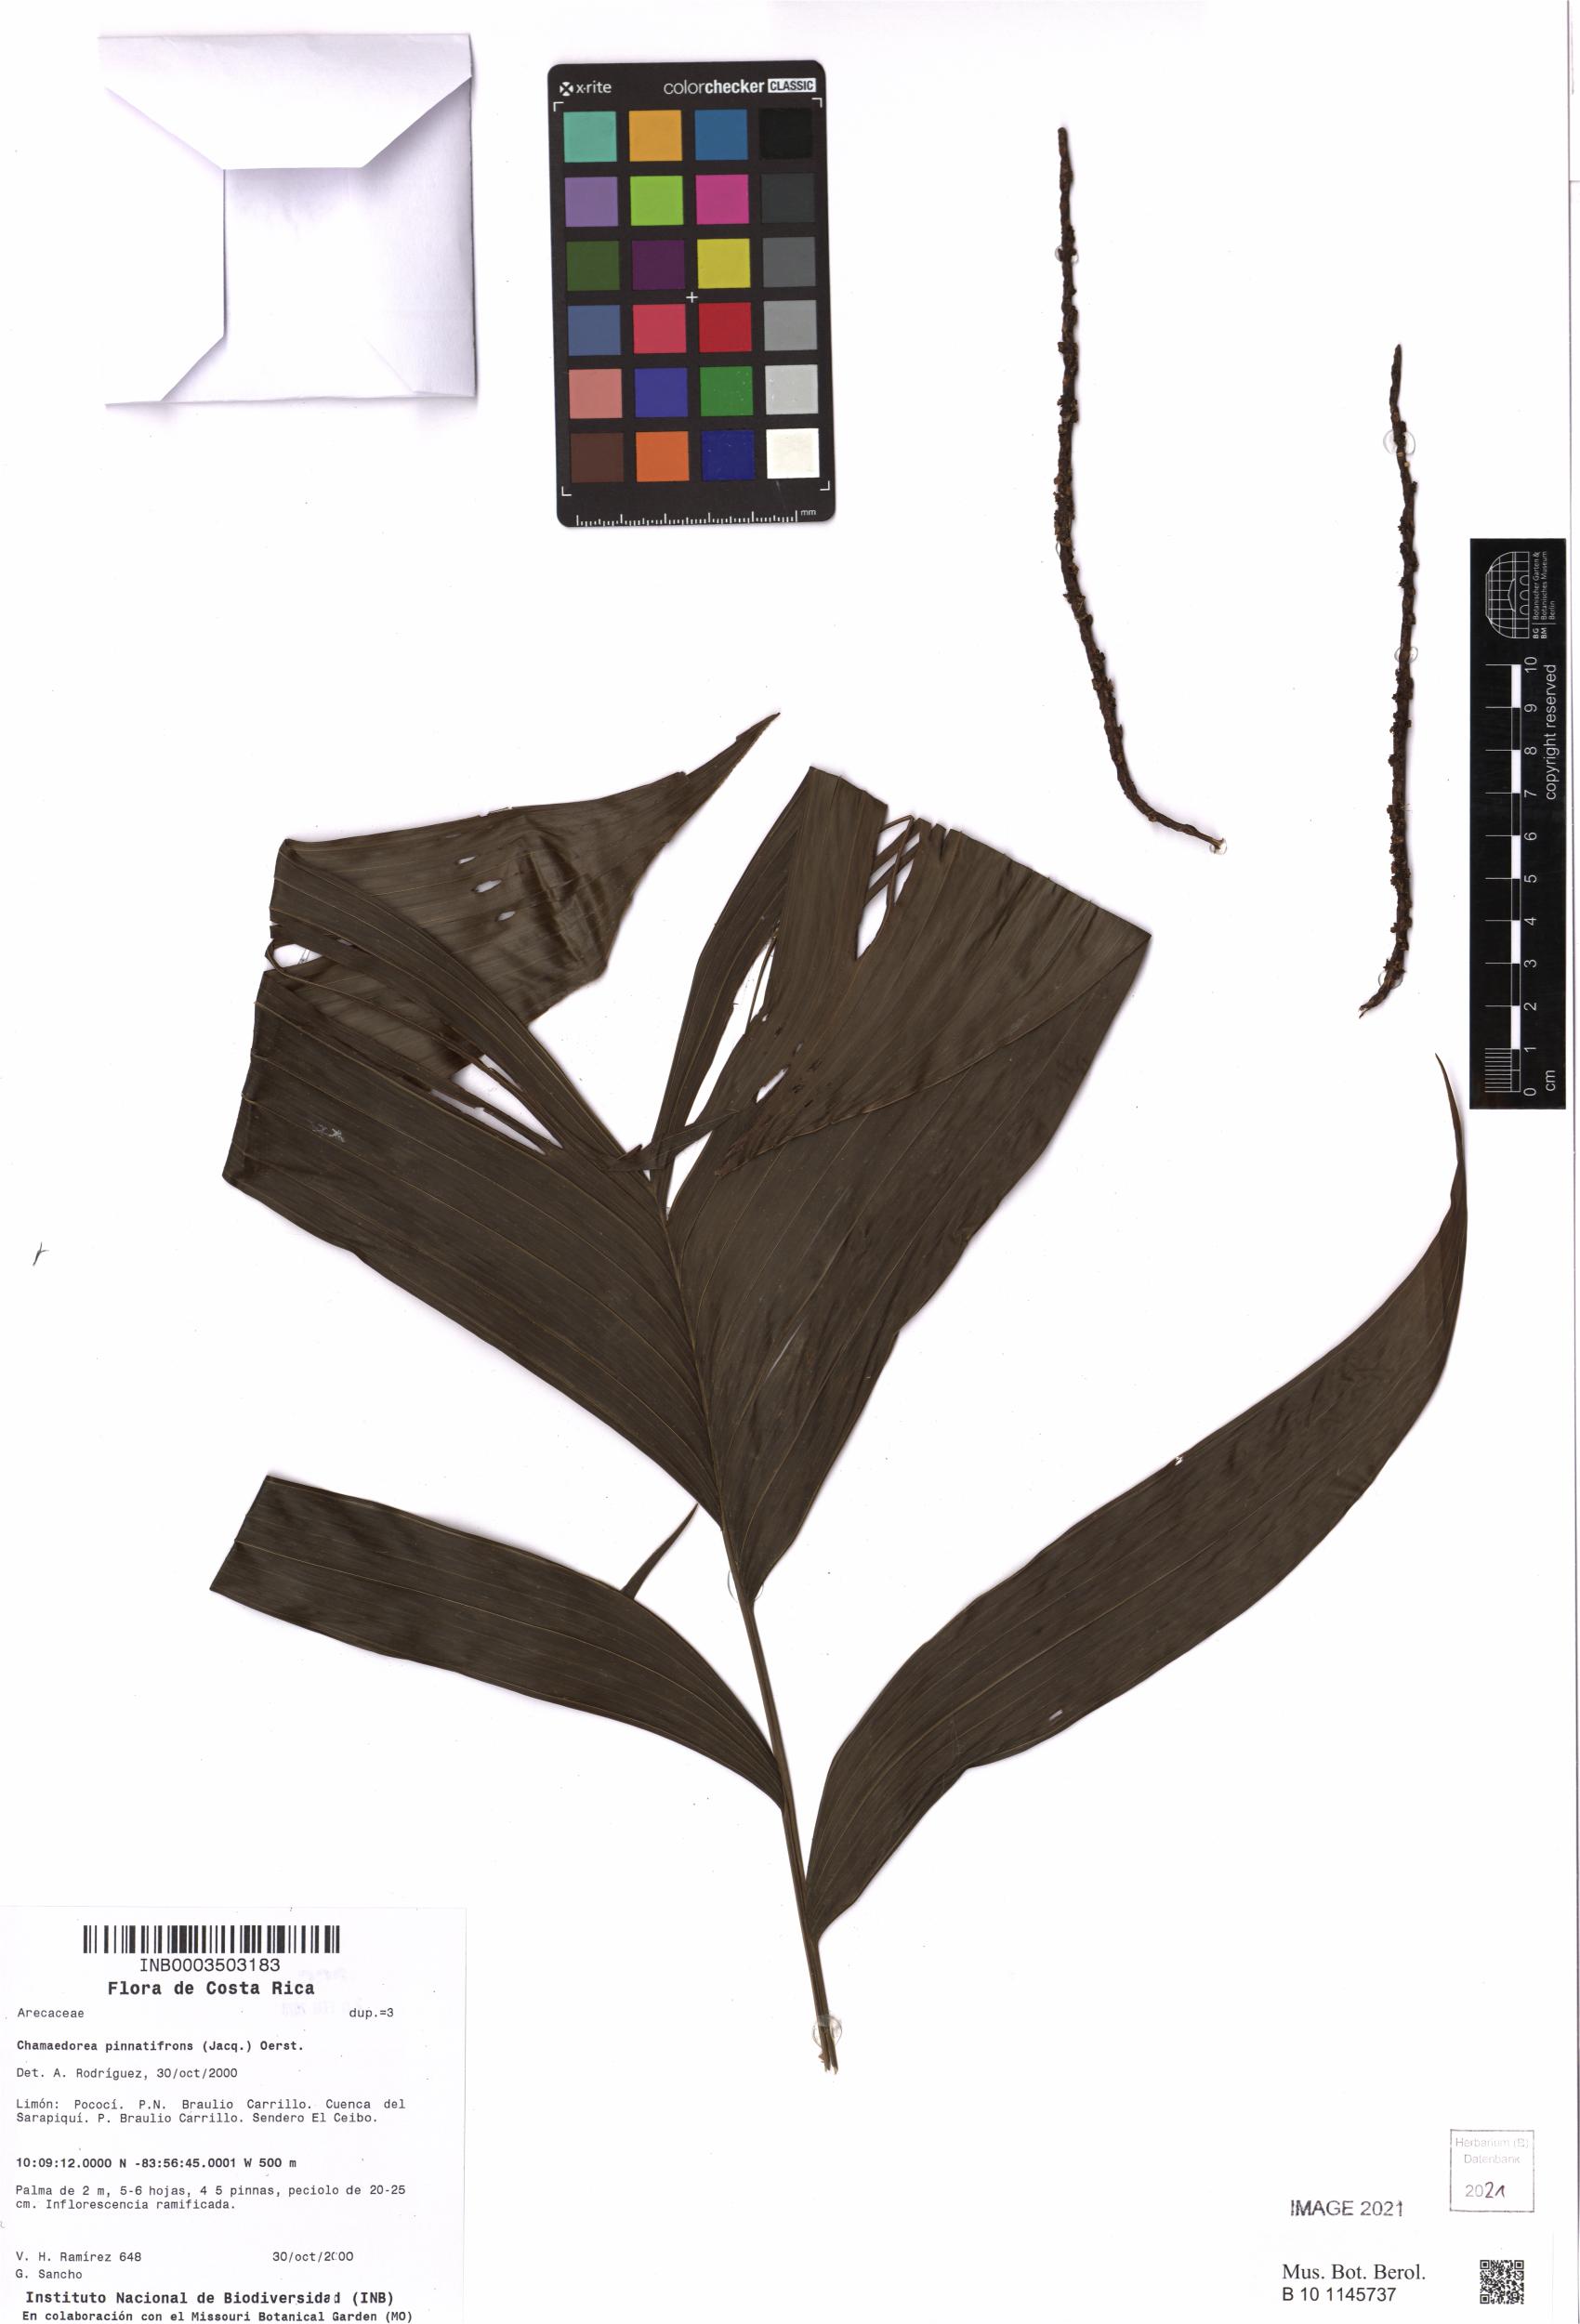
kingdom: Plantae
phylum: Tracheophyta
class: Liliopsida
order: Arecales
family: Arecaceae
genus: Chamaedorea
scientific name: Chamaedorea pinnatifrons
